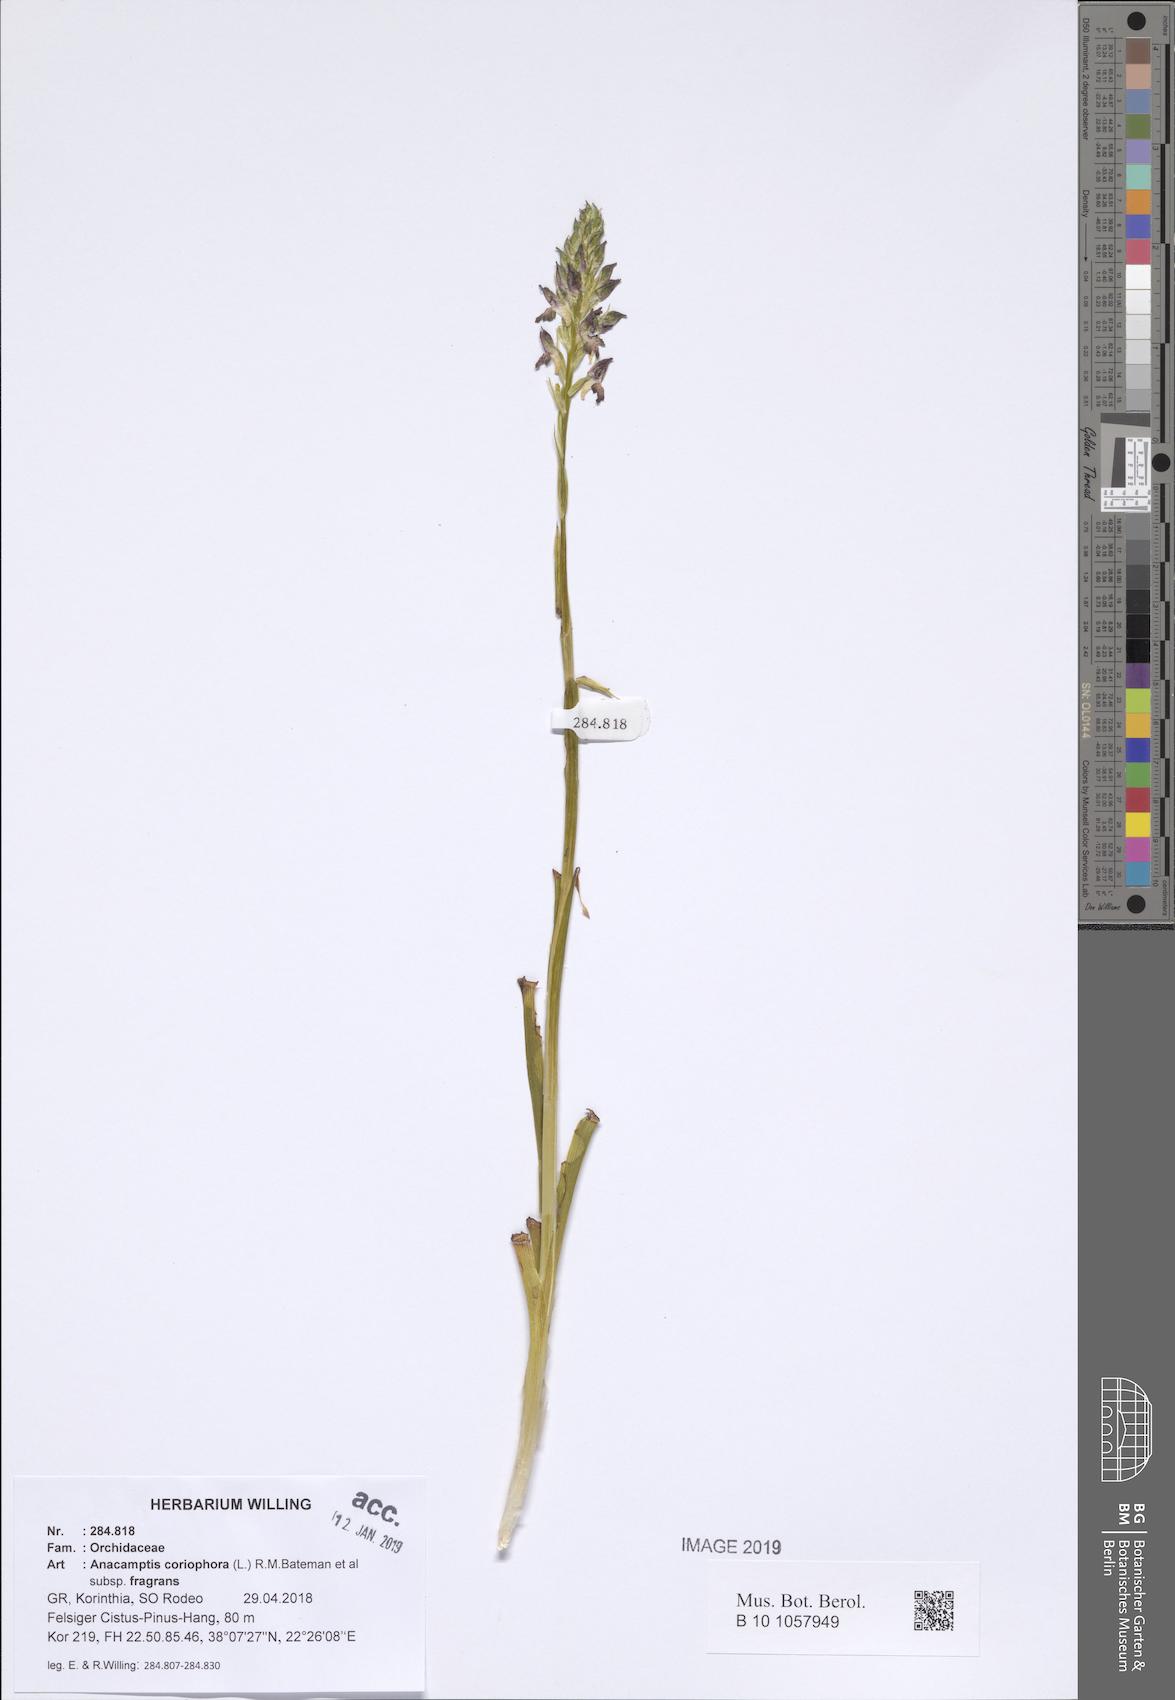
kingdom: Plantae
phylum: Tracheophyta
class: Liliopsida
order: Asparagales
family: Orchidaceae
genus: Anacamptis
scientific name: Anacamptis coriophora
